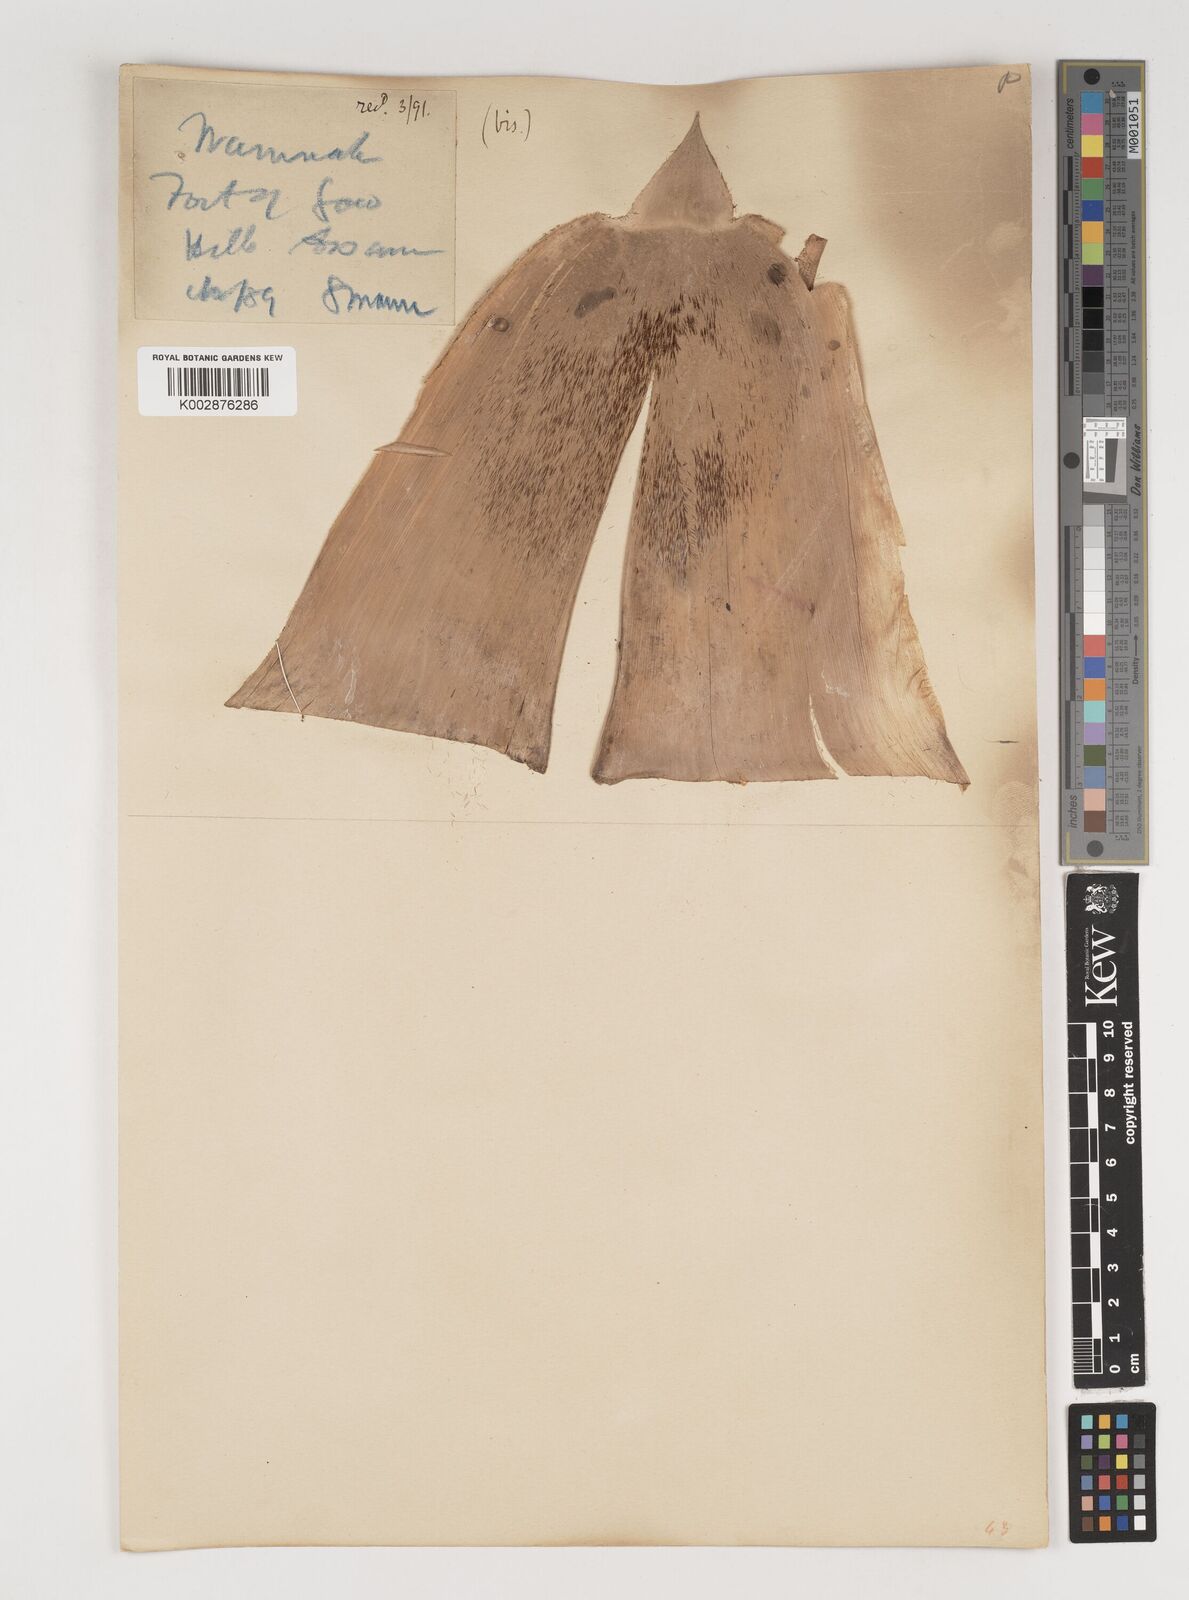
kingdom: Plantae
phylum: Tracheophyta
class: Liliopsida
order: Poales
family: Poaceae
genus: Bambusa
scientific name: Bambusa balcooa
